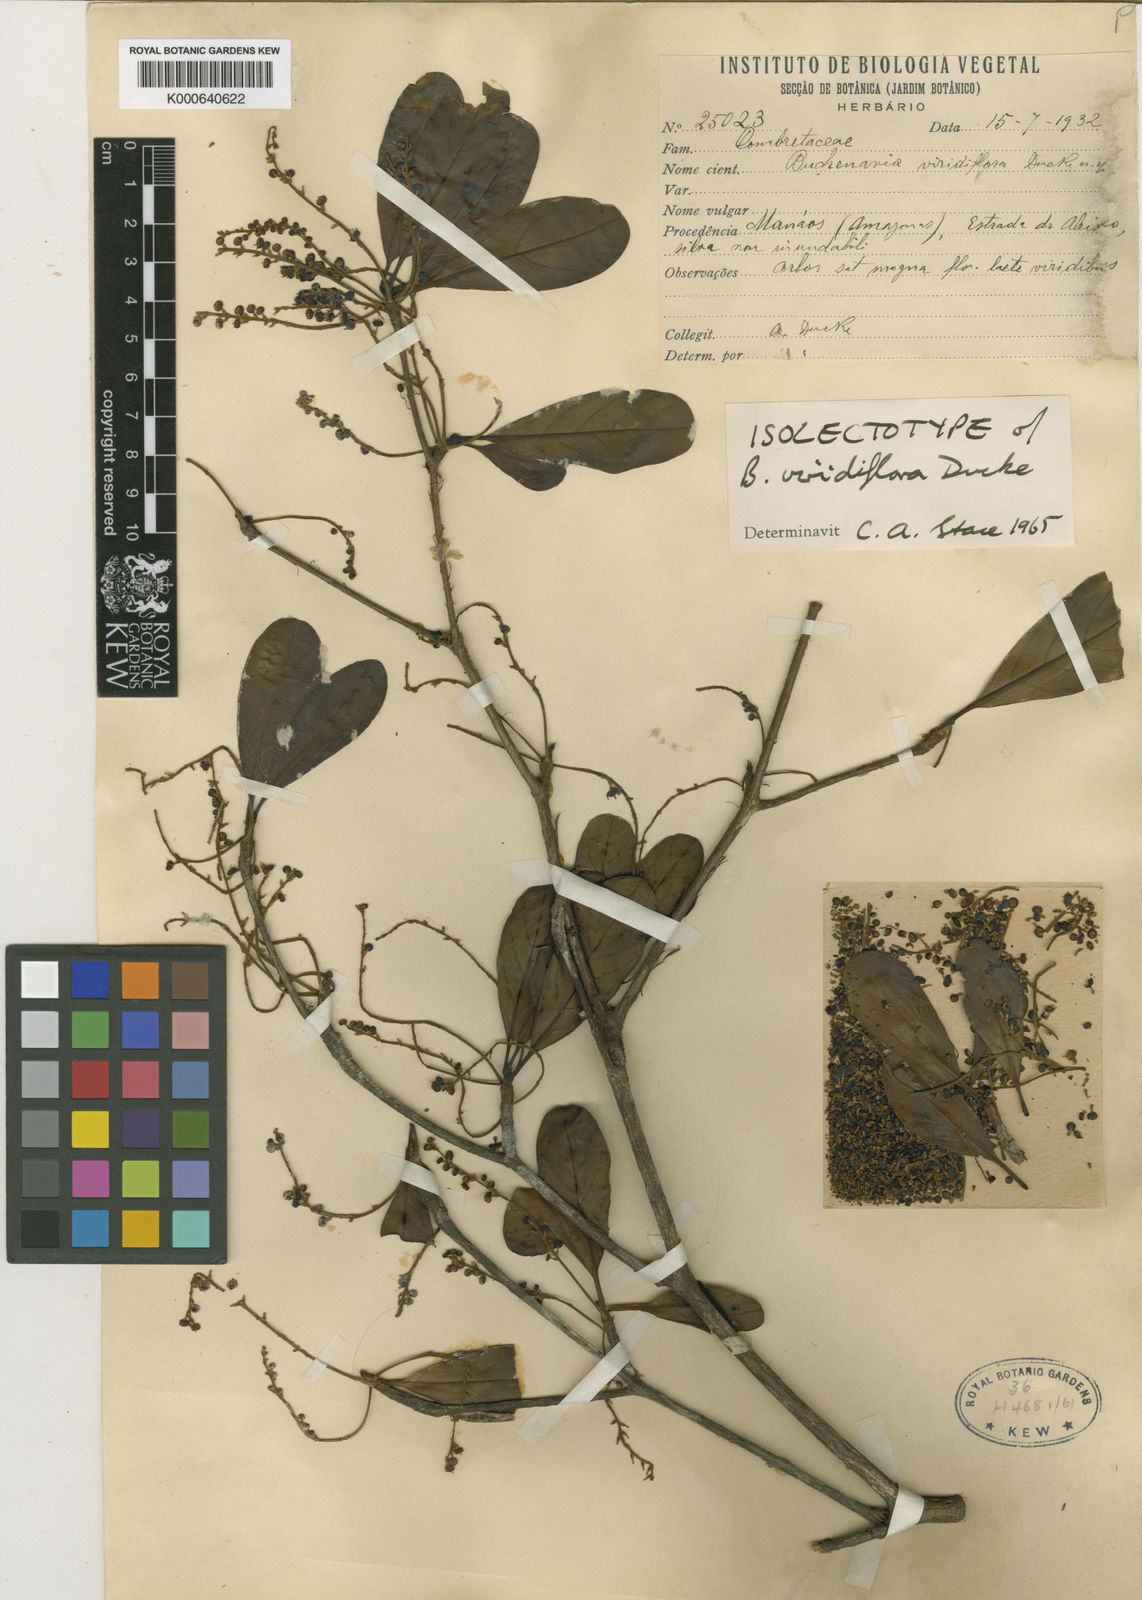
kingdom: Plantae
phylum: Tracheophyta
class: Magnoliopsida
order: Myrtales
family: Combretaceae
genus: Terminalia
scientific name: Terminalia viridiflora
